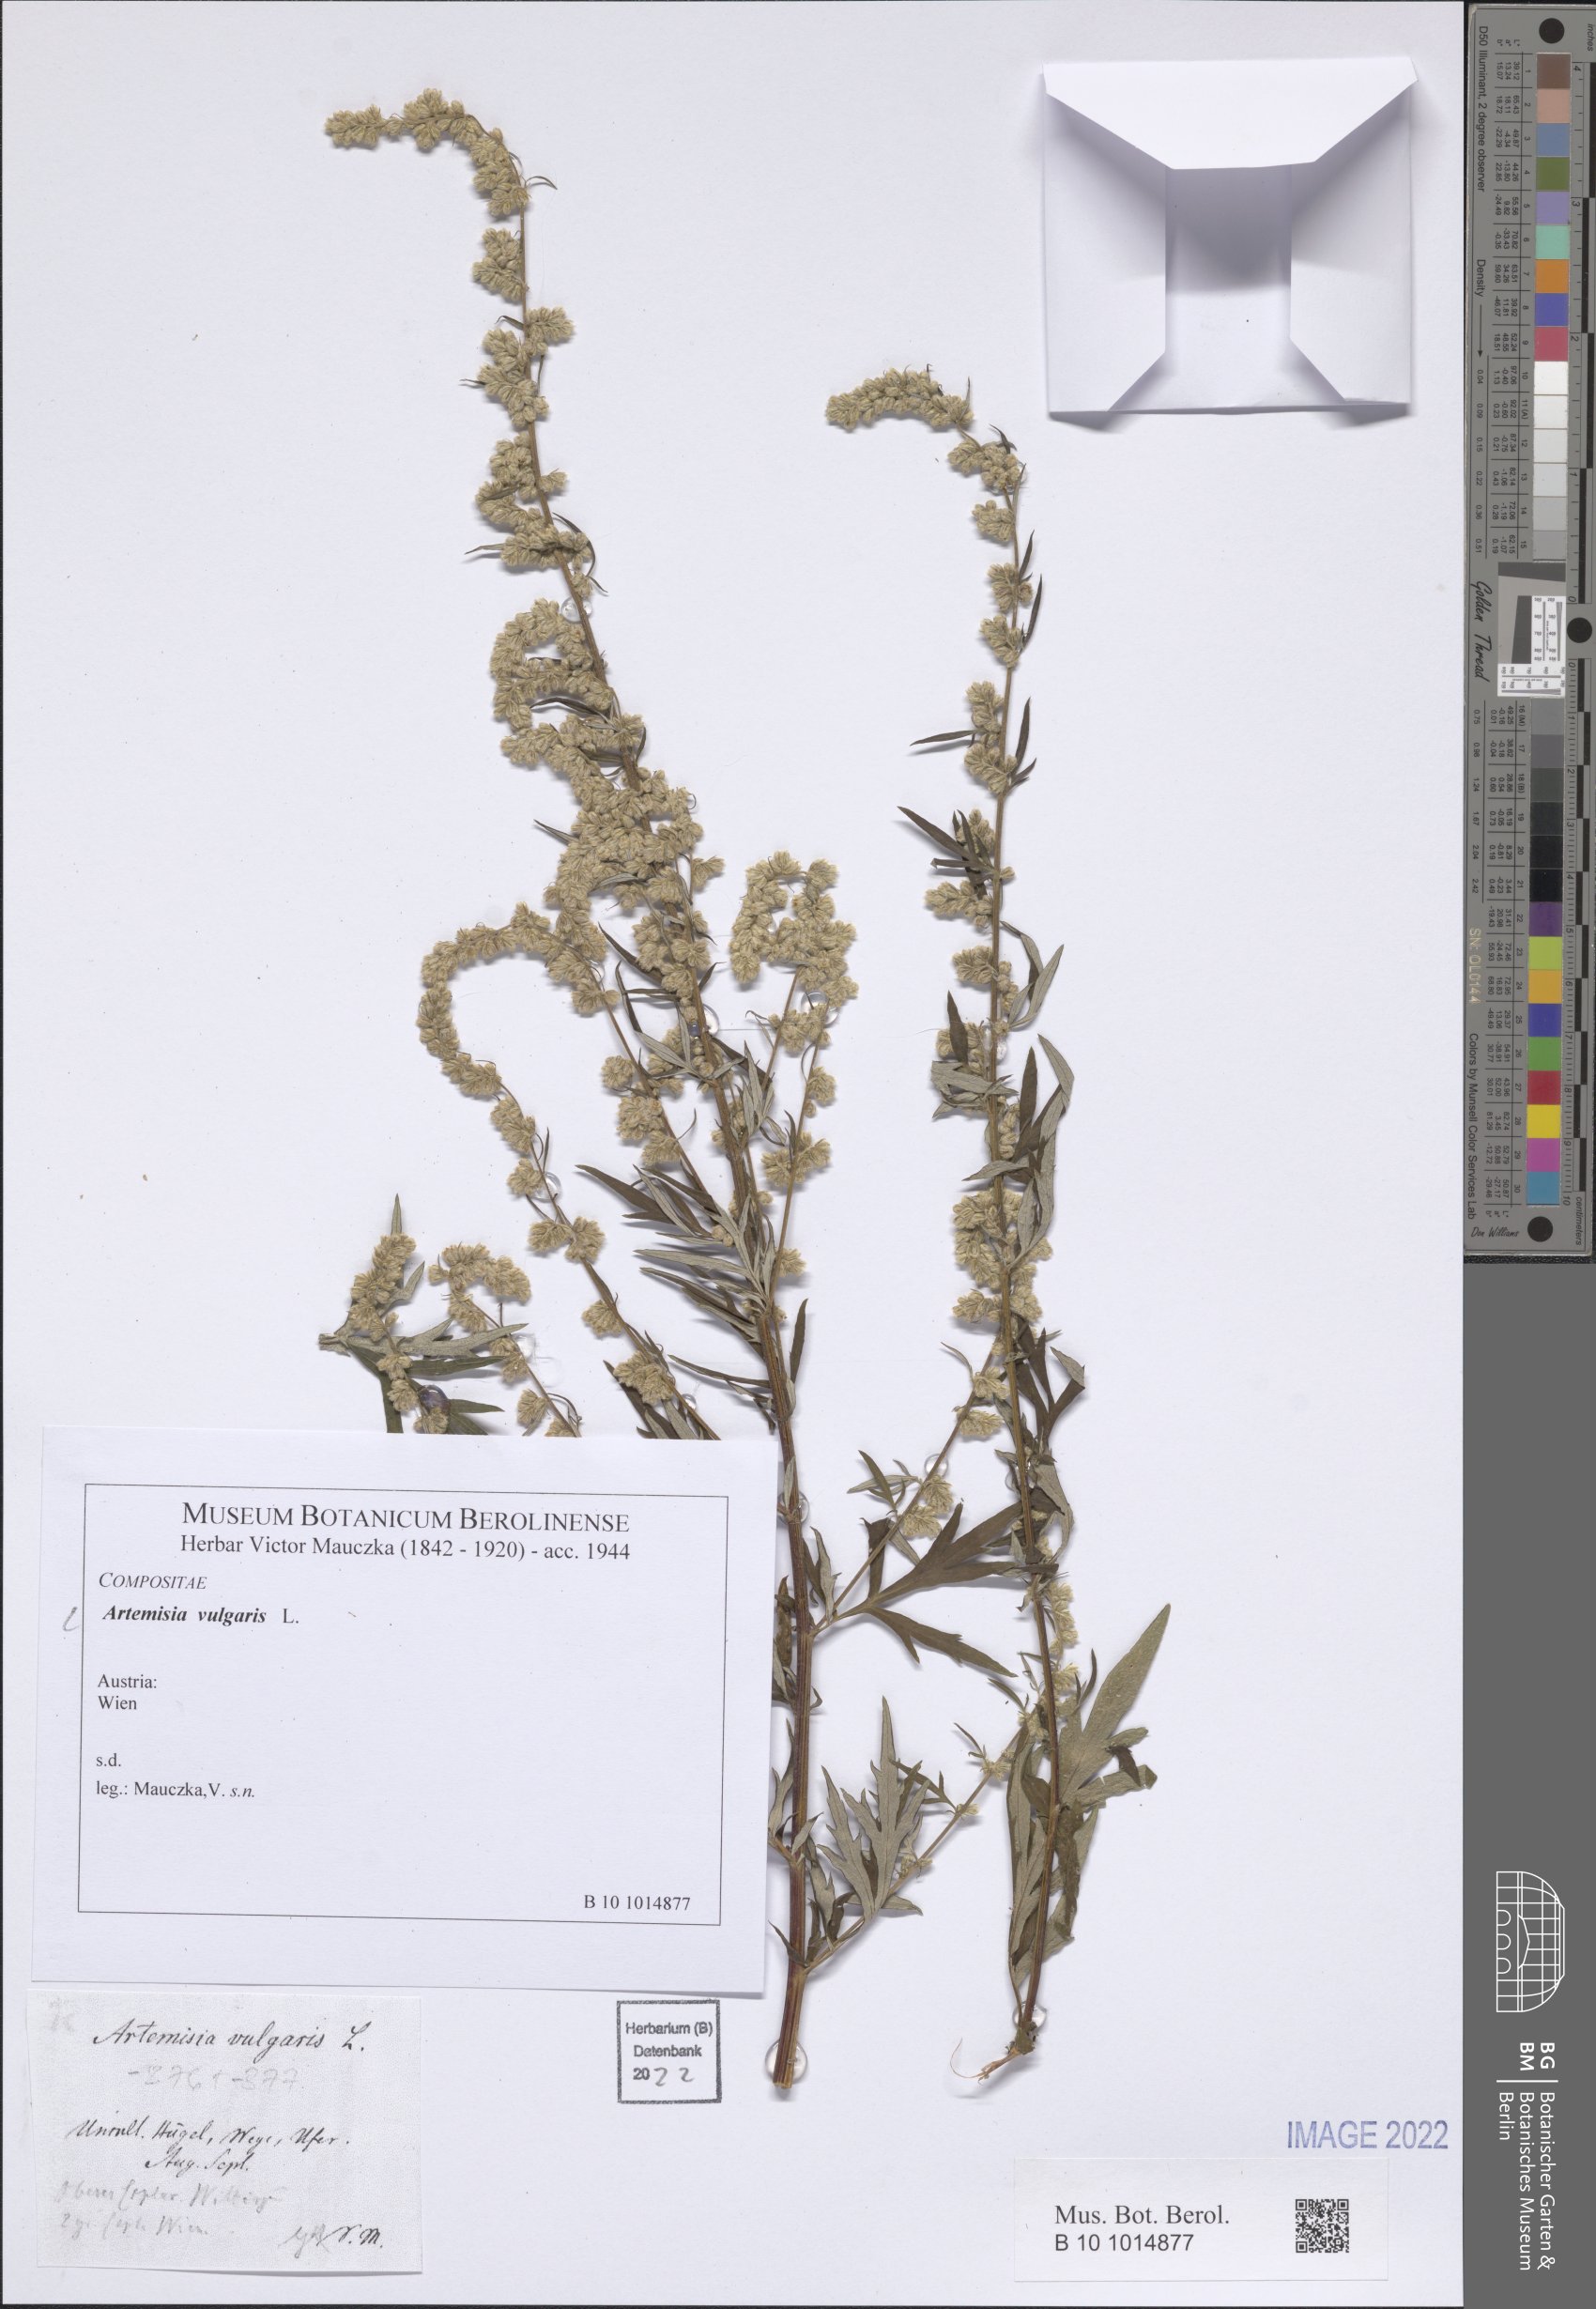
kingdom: Plantae
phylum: Tracheophyta
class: Magnoliopsida
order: Asterales
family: Asteraceae
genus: Artemisia
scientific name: Artemisia vulgaris
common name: Mugwort
